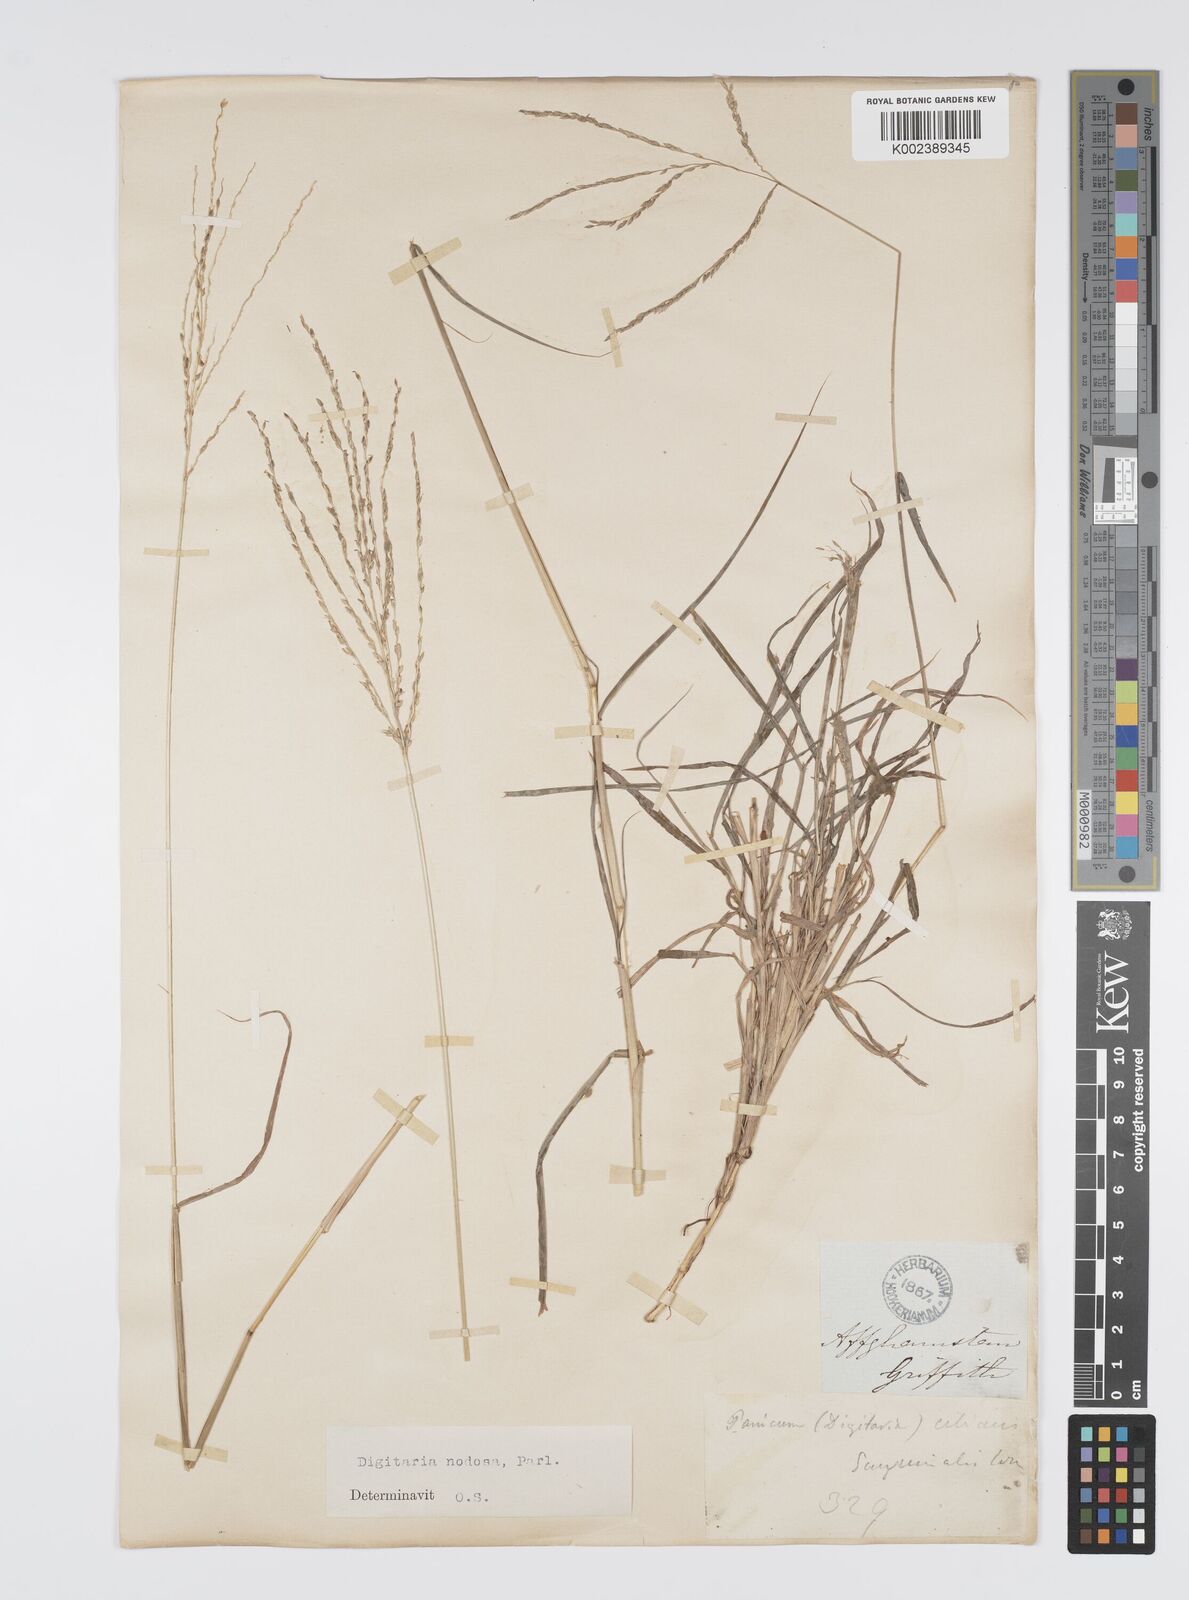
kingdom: Plantae
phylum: Tracheophyta
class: Liliopsida
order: Poales
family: Poaceae
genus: Digitaria
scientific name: Digitaria nodosa
